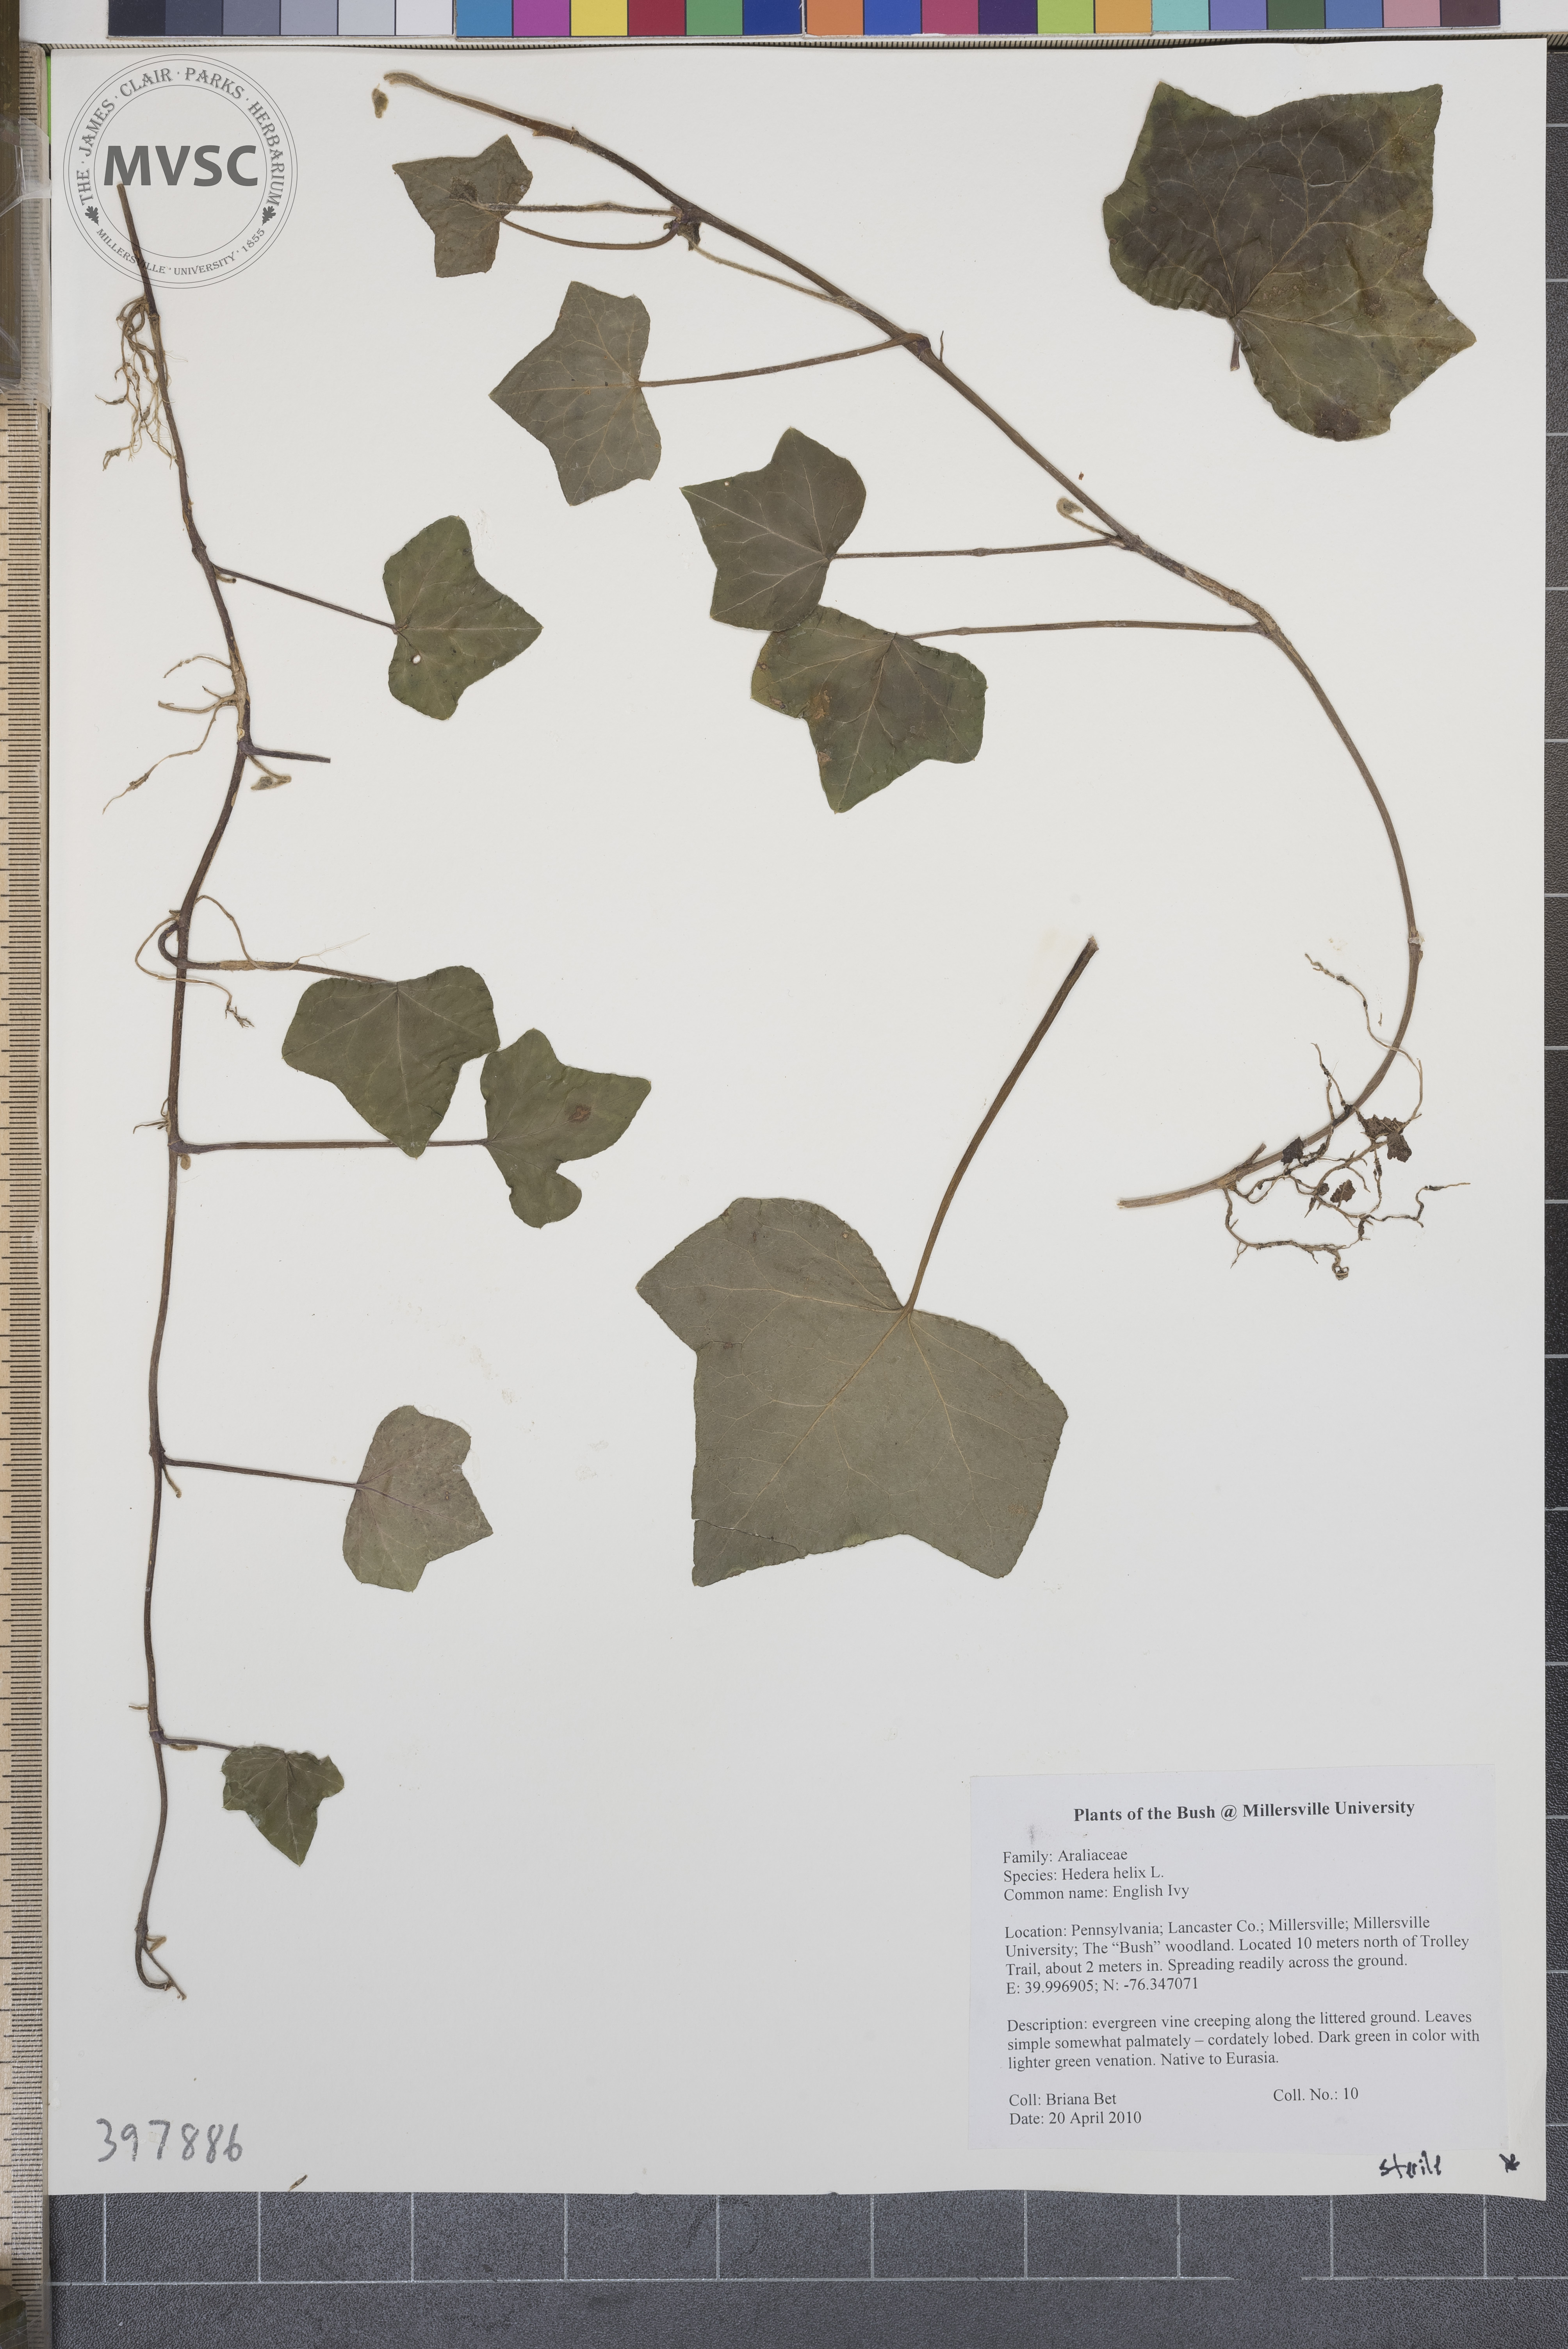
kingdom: Plantae
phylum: Tracheophyta
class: Magnoliopsida
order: Apiales
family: Araliaceae
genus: Hedera
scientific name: Hedera helix
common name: English ivy
